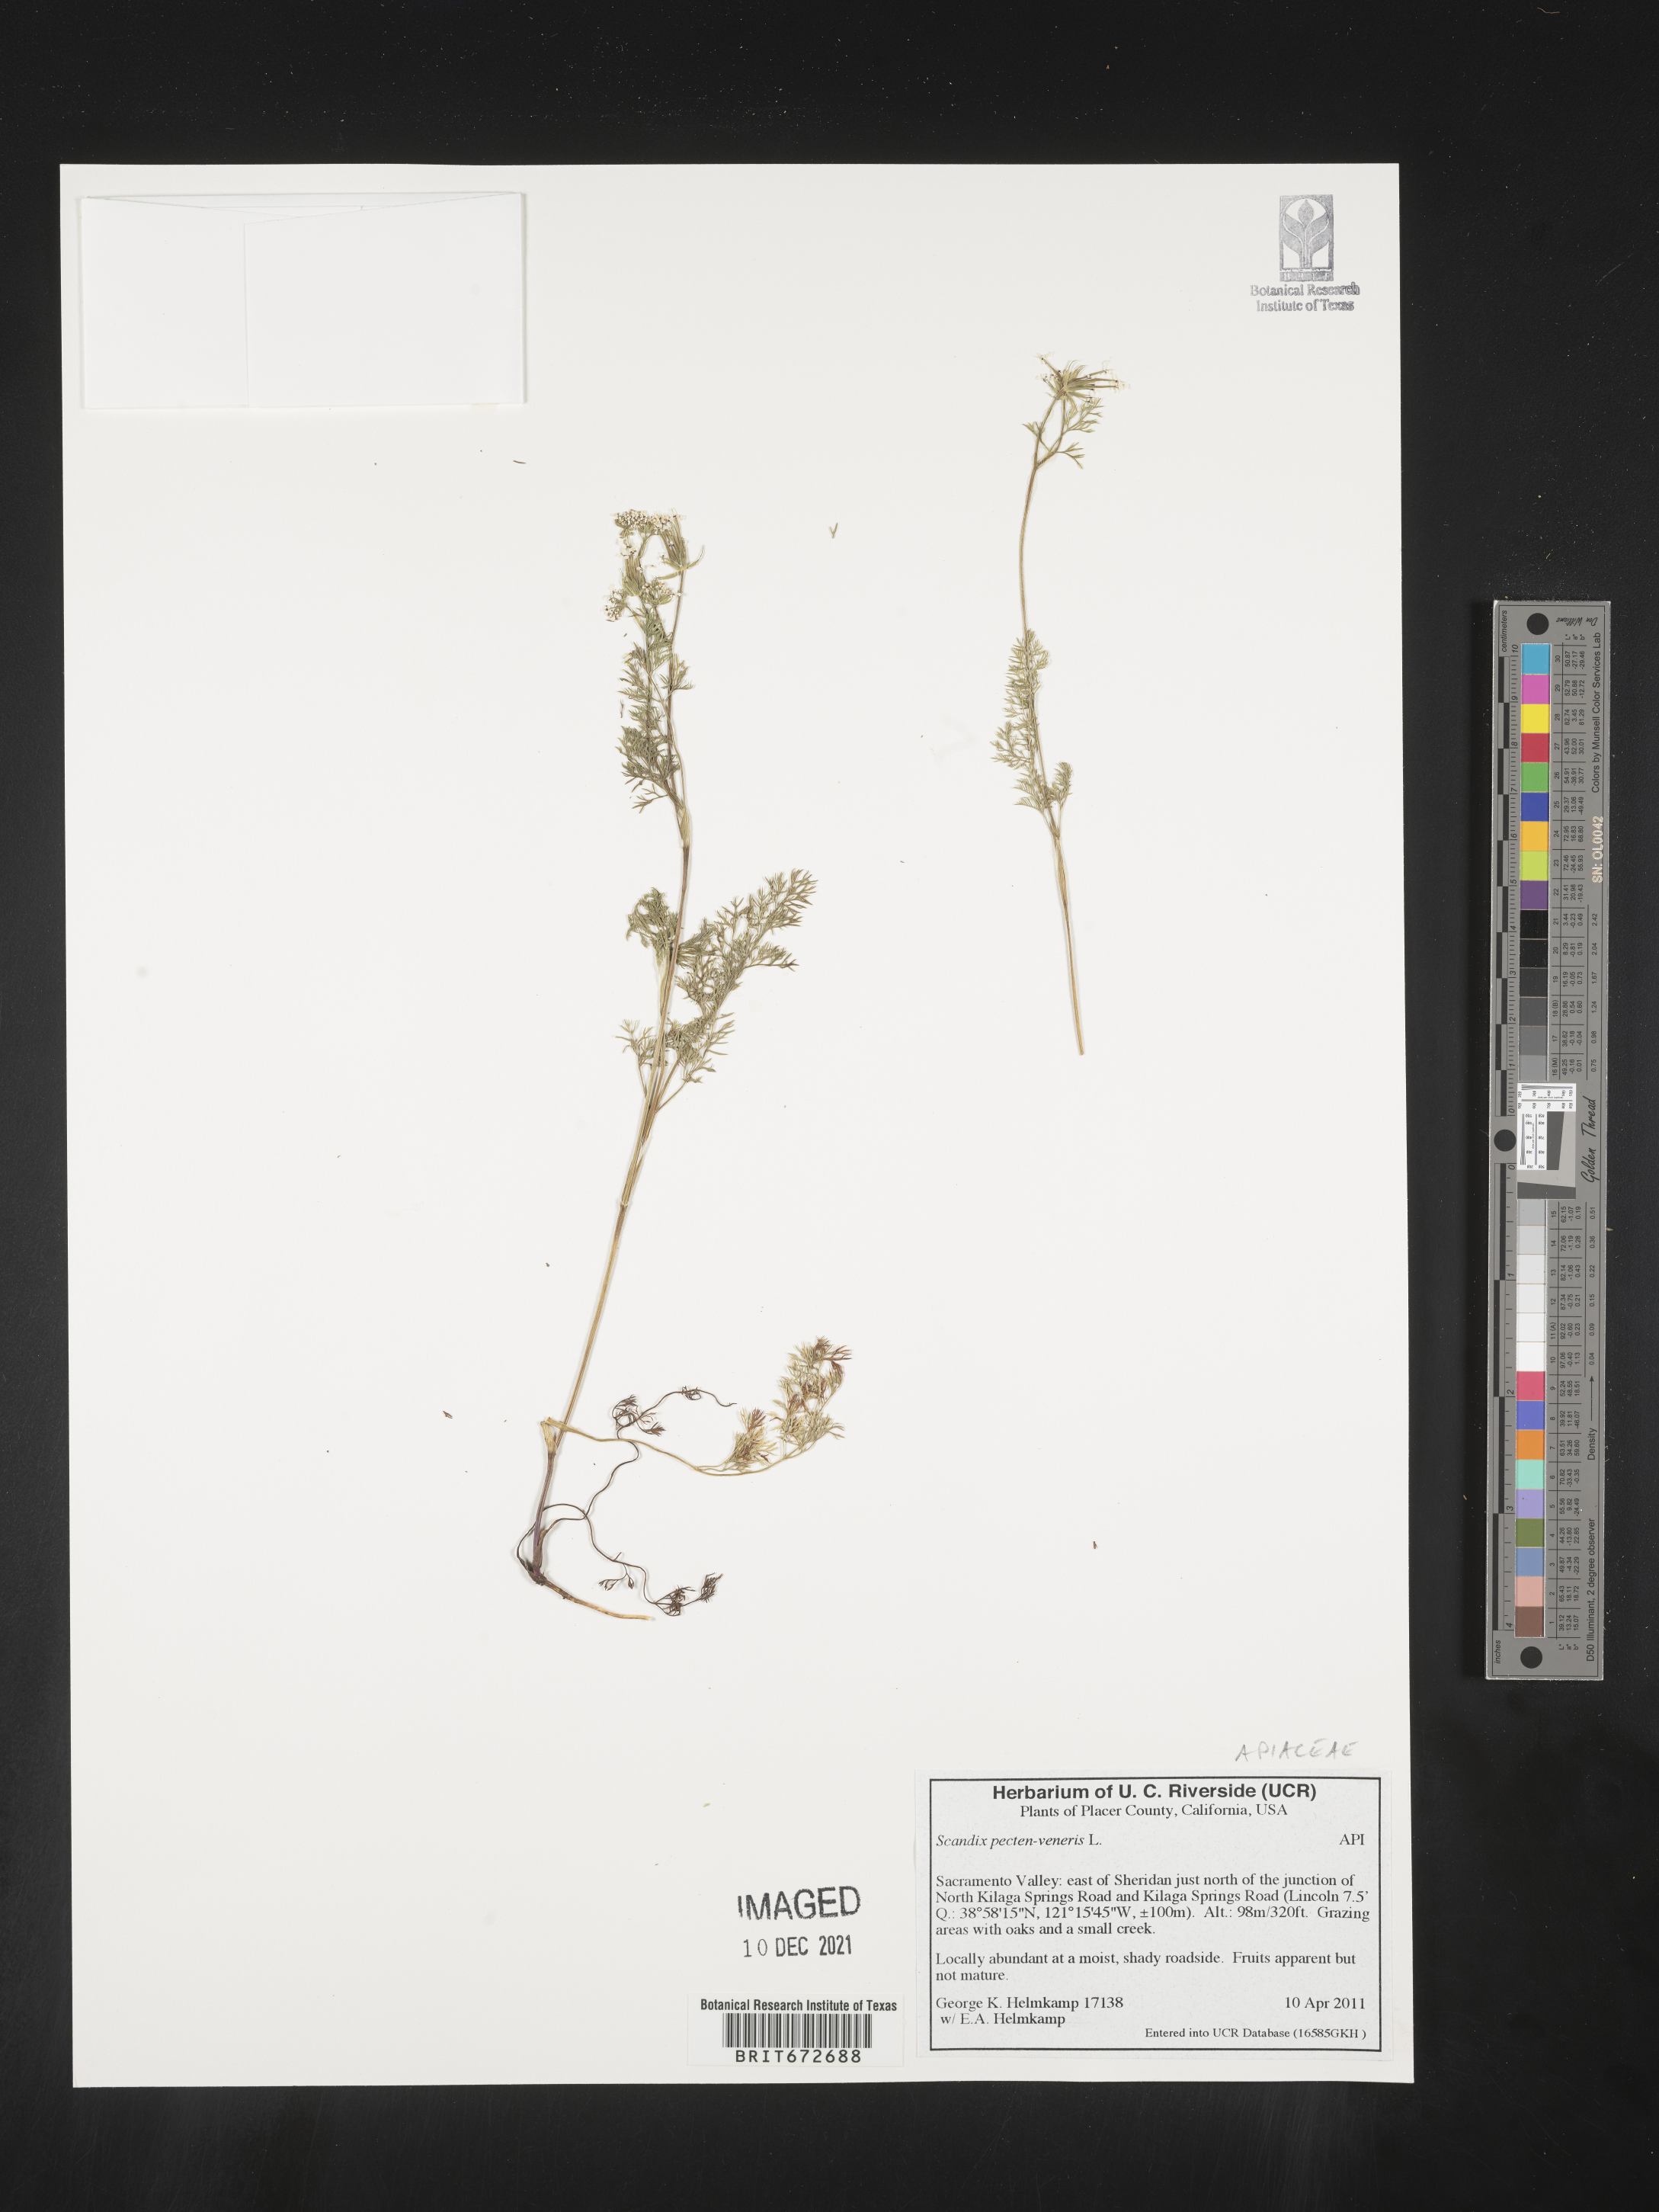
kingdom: Plantae
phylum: Tracheophyta
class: Magnoliopsida
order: Apiales
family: Apiaceae
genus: Scandix
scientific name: Scandix
